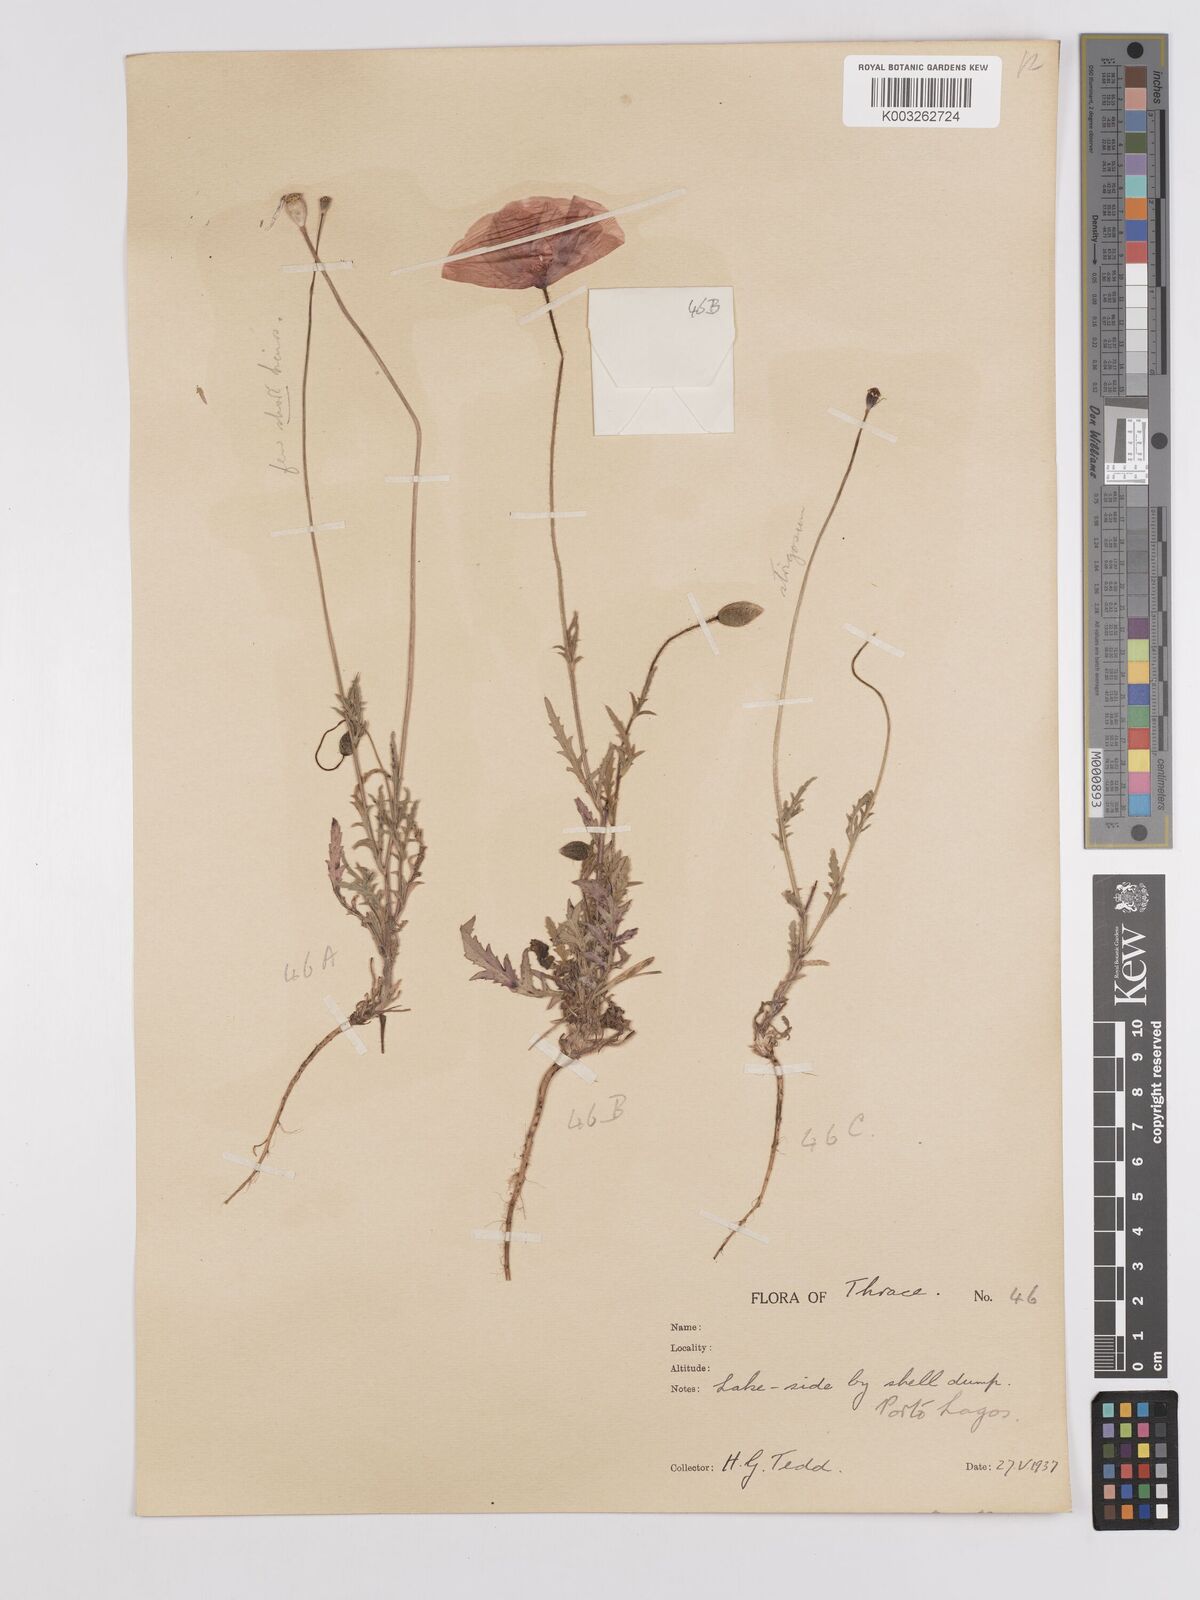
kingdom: Plantae
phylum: Tracheophyta
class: Magnoliopsida
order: Ranunculales
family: Papaveraceae
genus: Papaver
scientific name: Papaver
